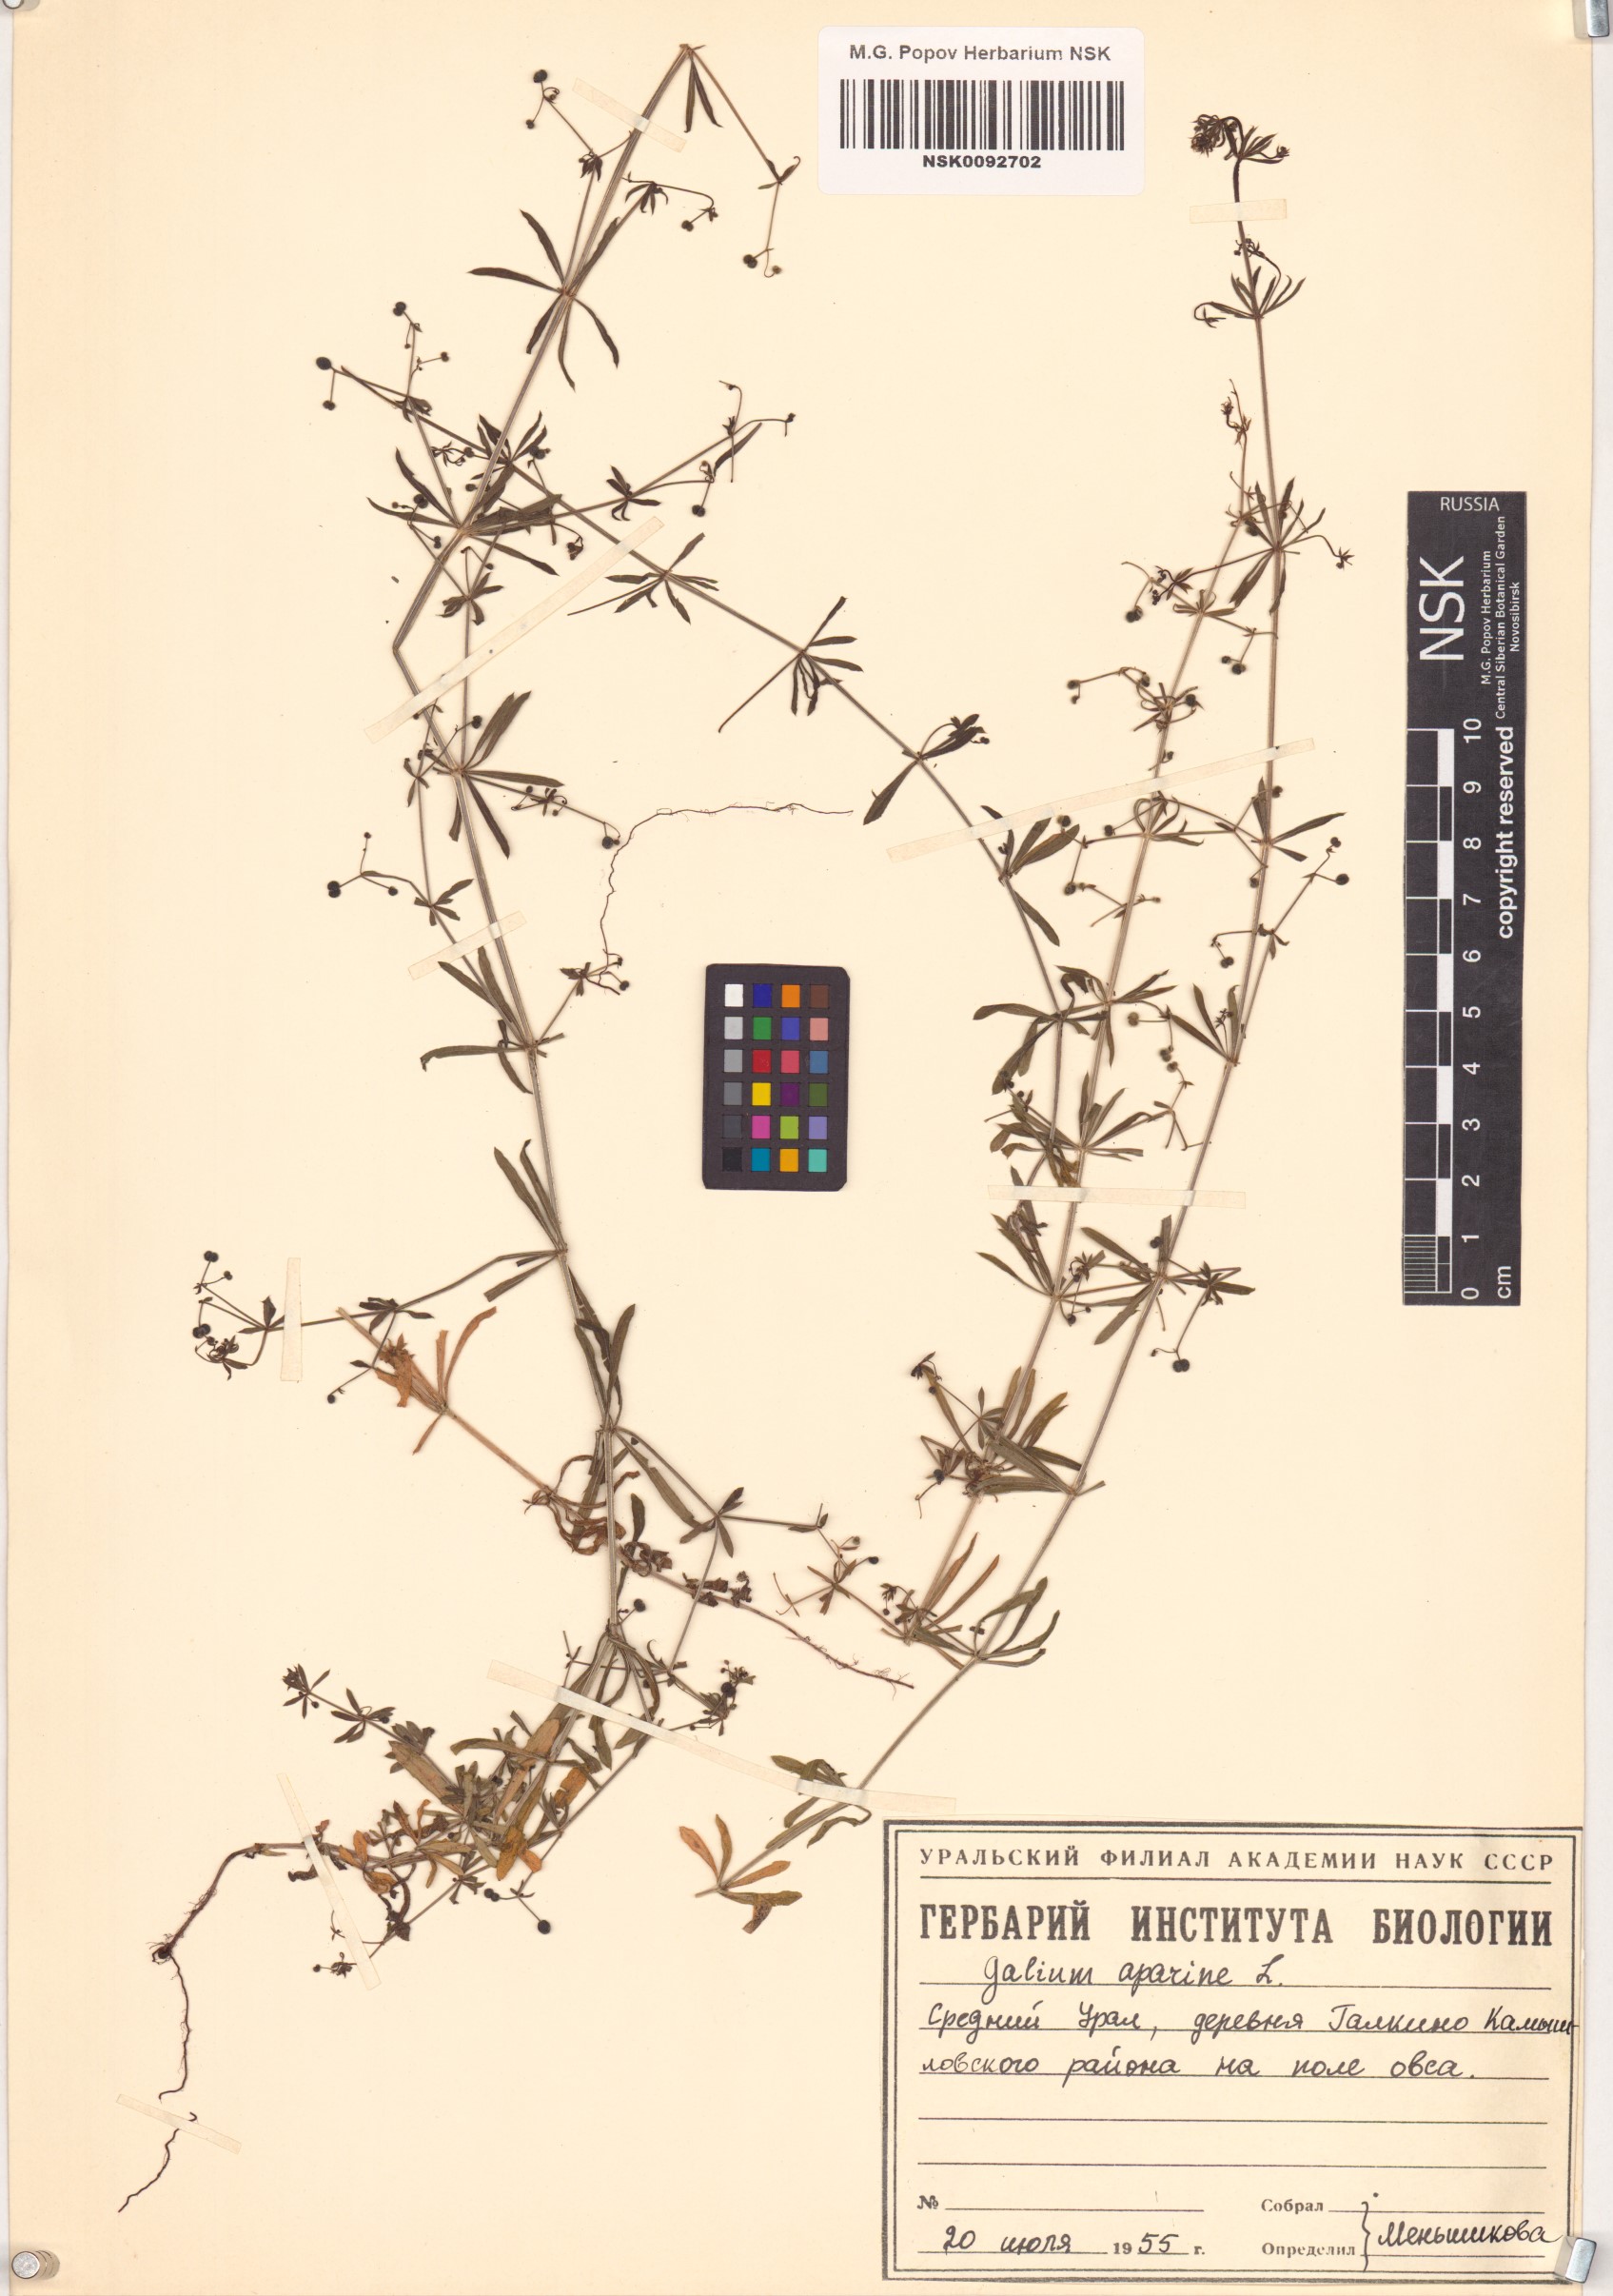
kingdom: Plantae
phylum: Tracheophyta
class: Magnoliopsida
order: Gentianales
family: Rubiaceae
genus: Galium
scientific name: Galium aparine
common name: Cleavers
